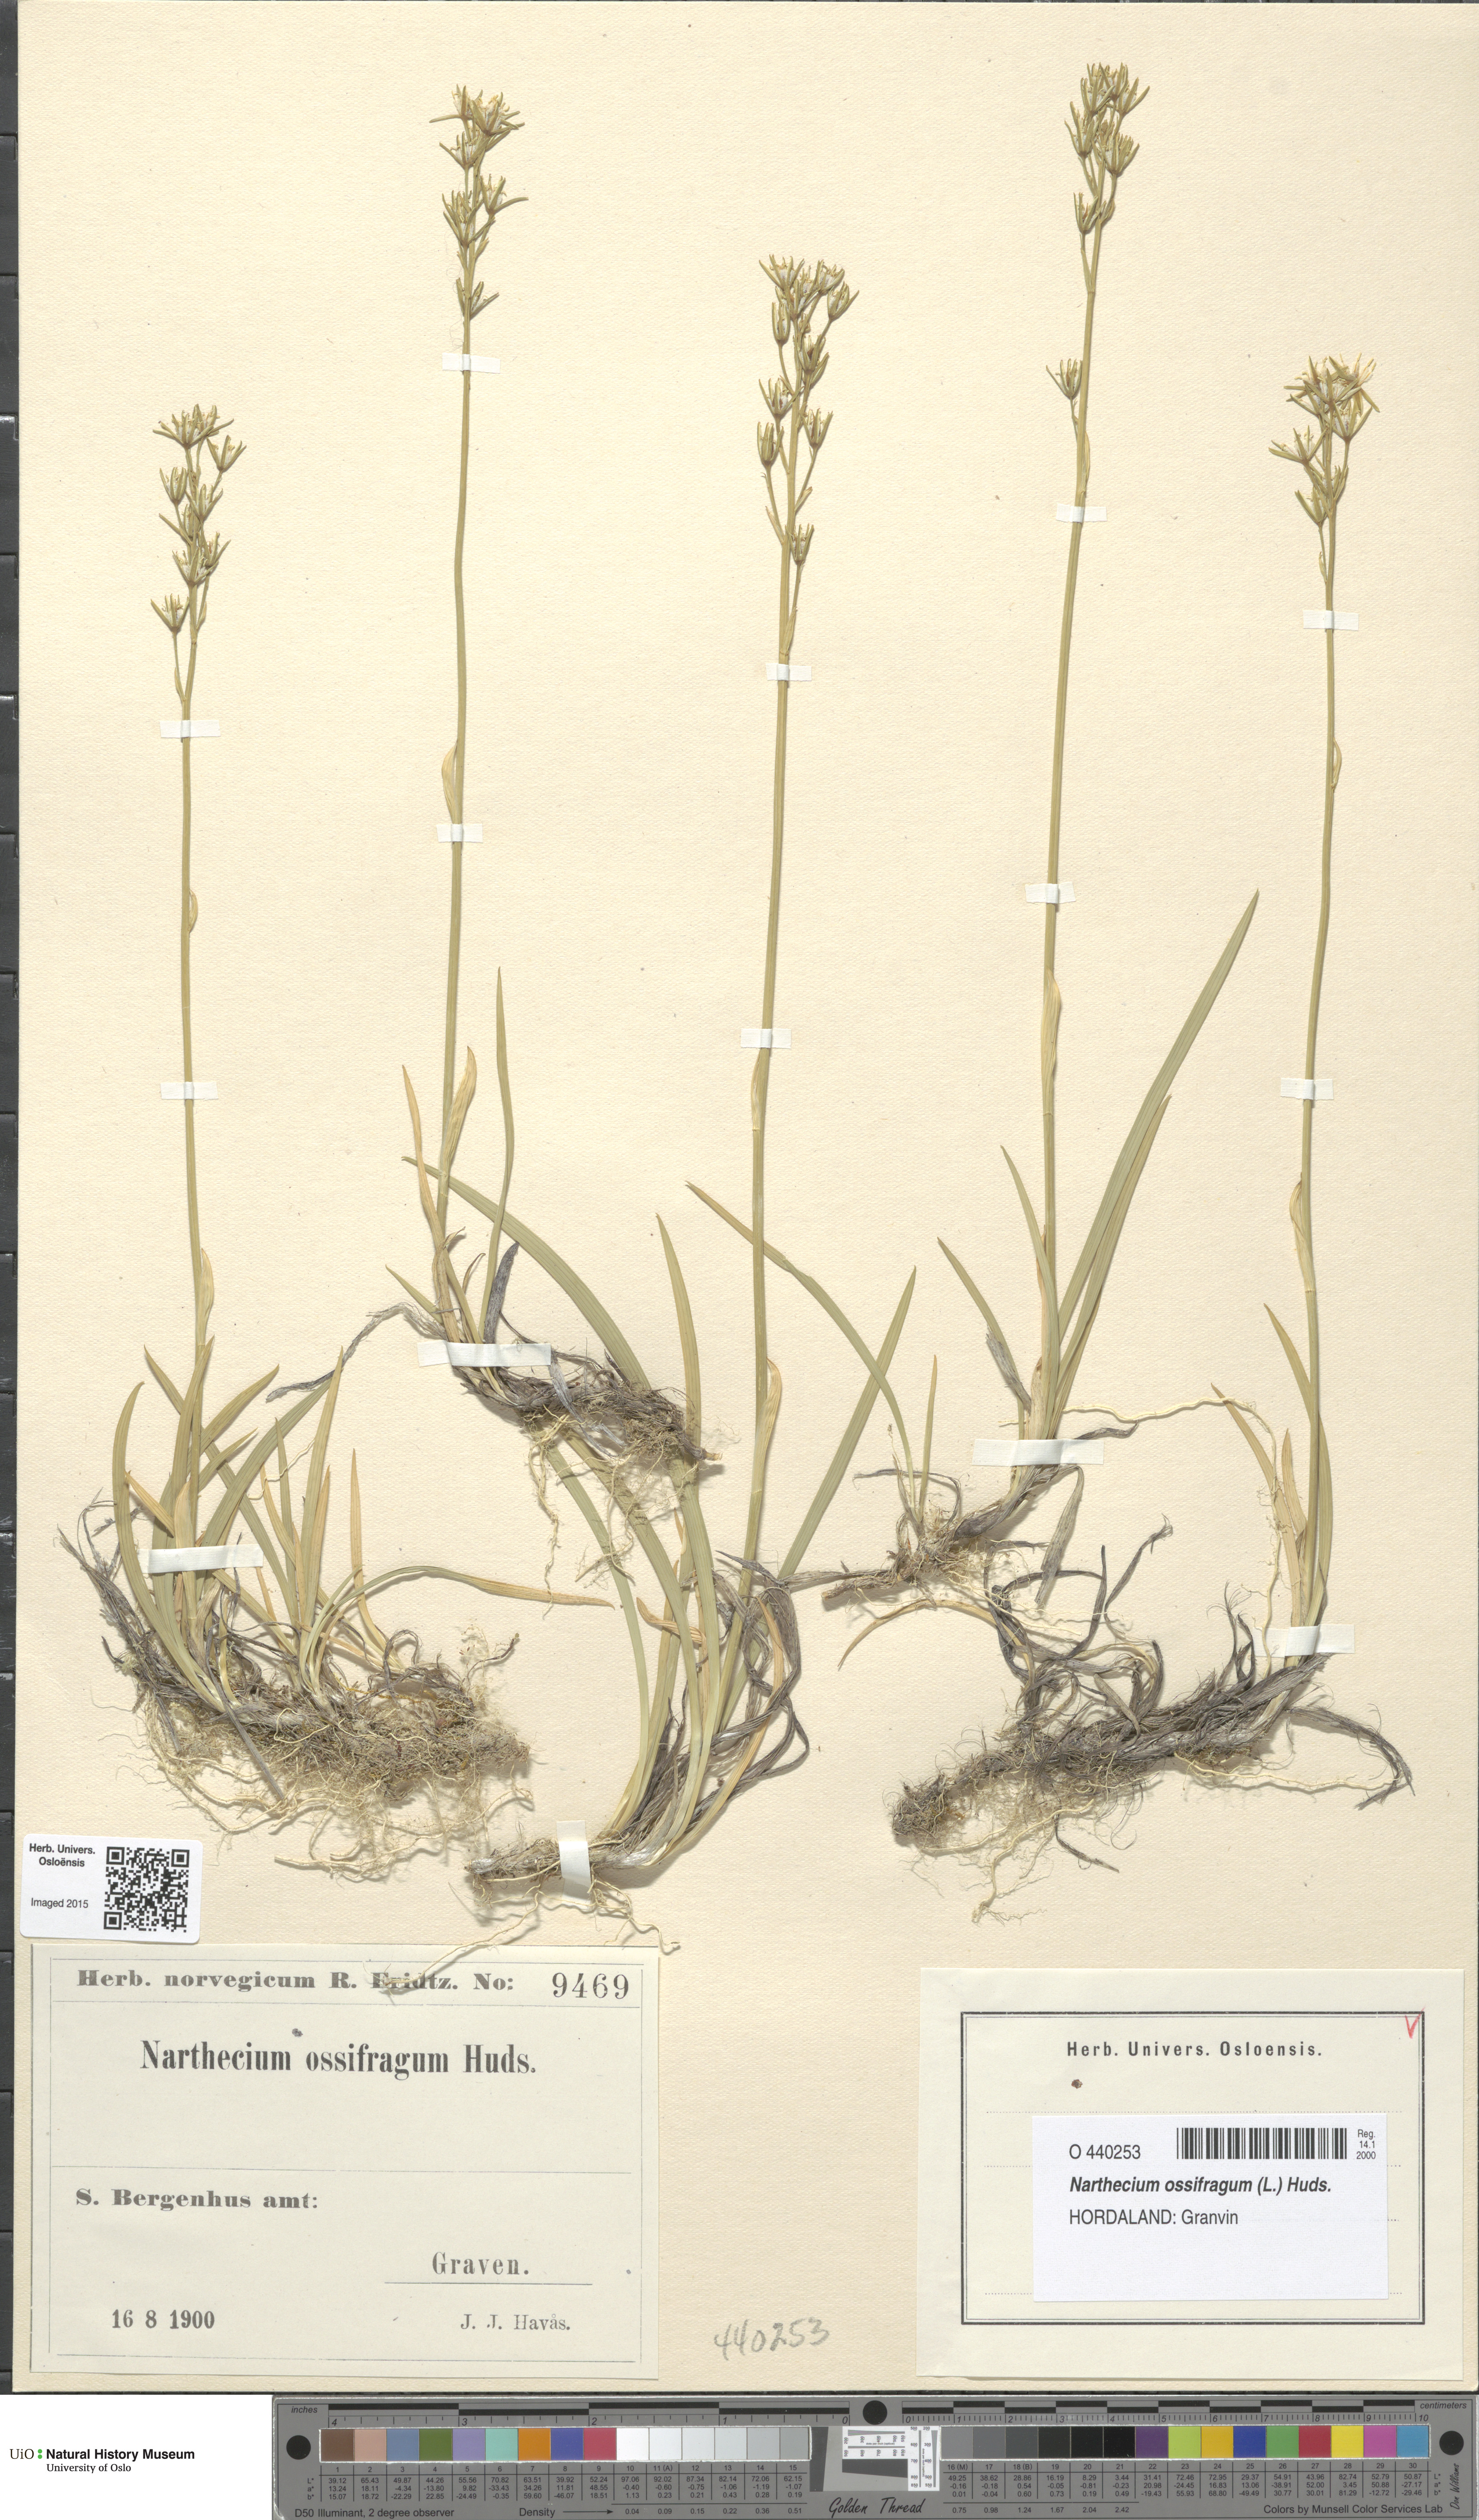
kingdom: Plantae
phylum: Tracheophyta
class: Liliopsida
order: Dioscoreales
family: Nartheciaceae
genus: Narthecium
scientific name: Narthecium ossifragum
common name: Bog asphodel
